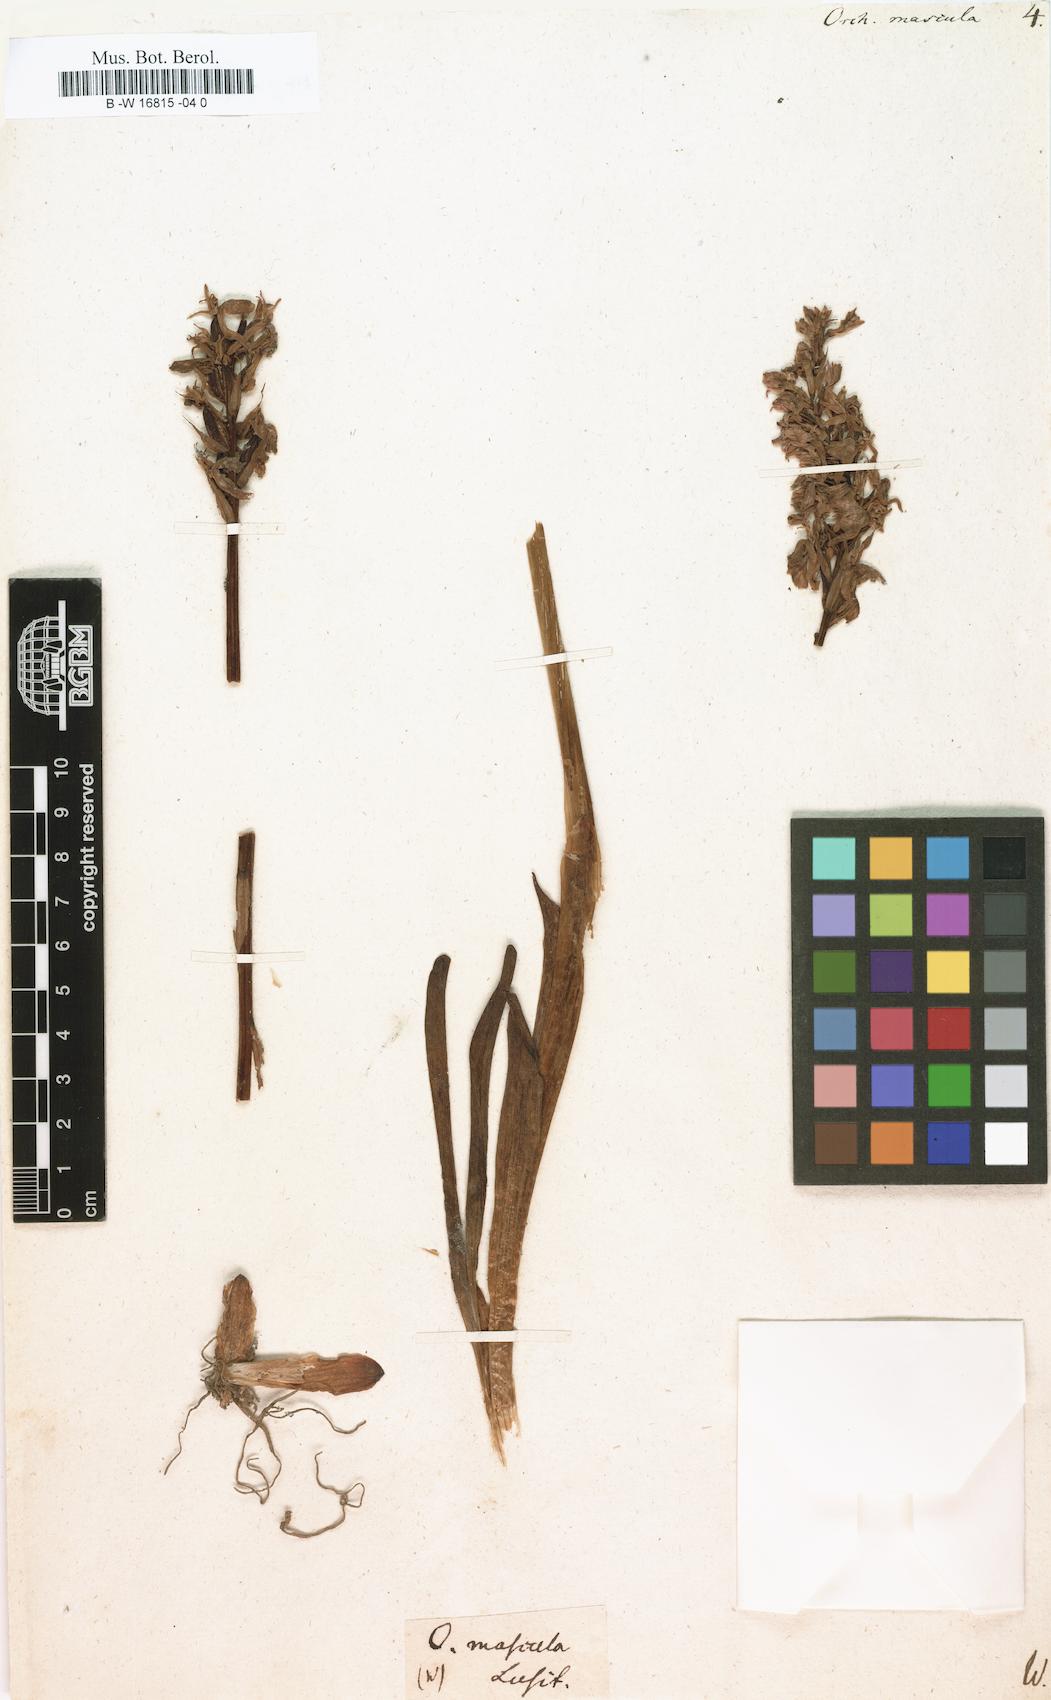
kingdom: Plantae
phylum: Tracheophyta
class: Liliopsida
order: Asparagales
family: Orchidaceae
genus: Orchis
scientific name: Orchis mascula
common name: Early-purple orchid
